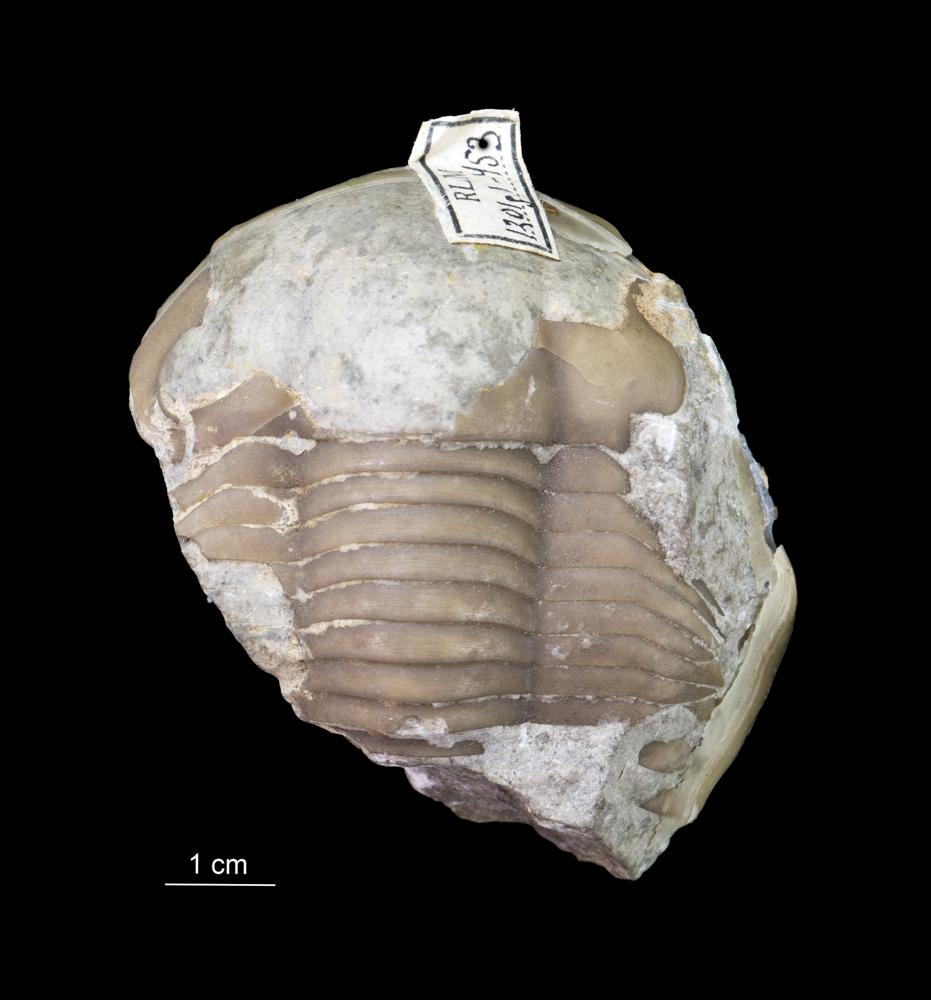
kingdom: Animalia
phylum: Arthropoda
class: Trilobita
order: Corynexochida
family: Illaenidae
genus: Illaenus
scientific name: Illaenus
